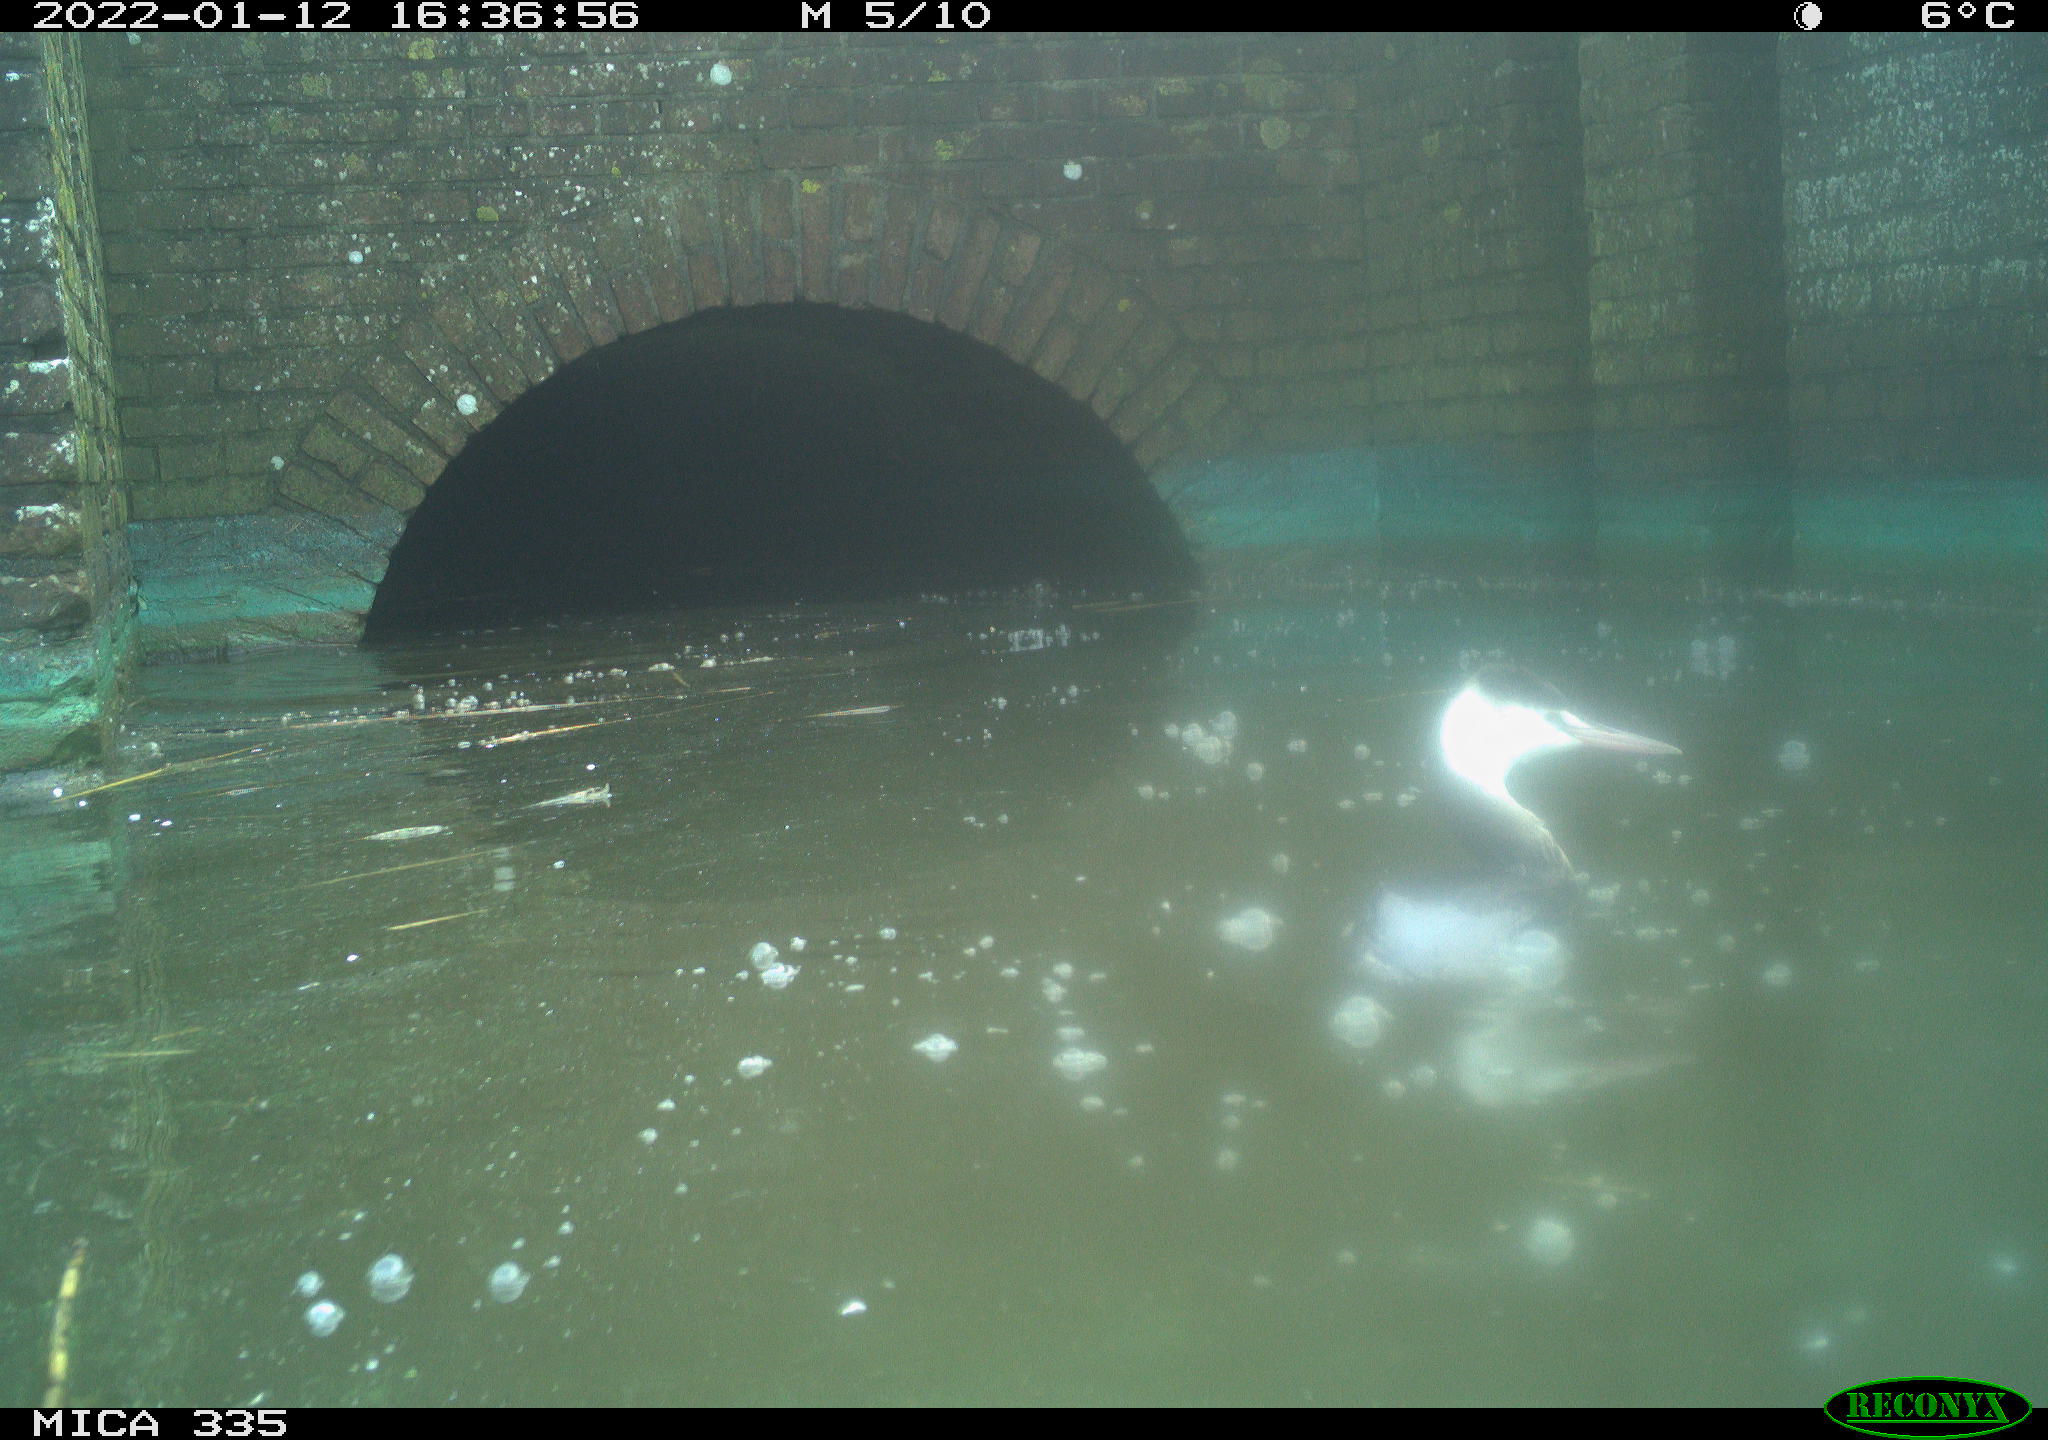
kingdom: Animalia
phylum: Chordata
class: Aves
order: Podicipediformes
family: Podicipedidae
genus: Podiceps
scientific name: Podiceps cristatus
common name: Great crested grebe
